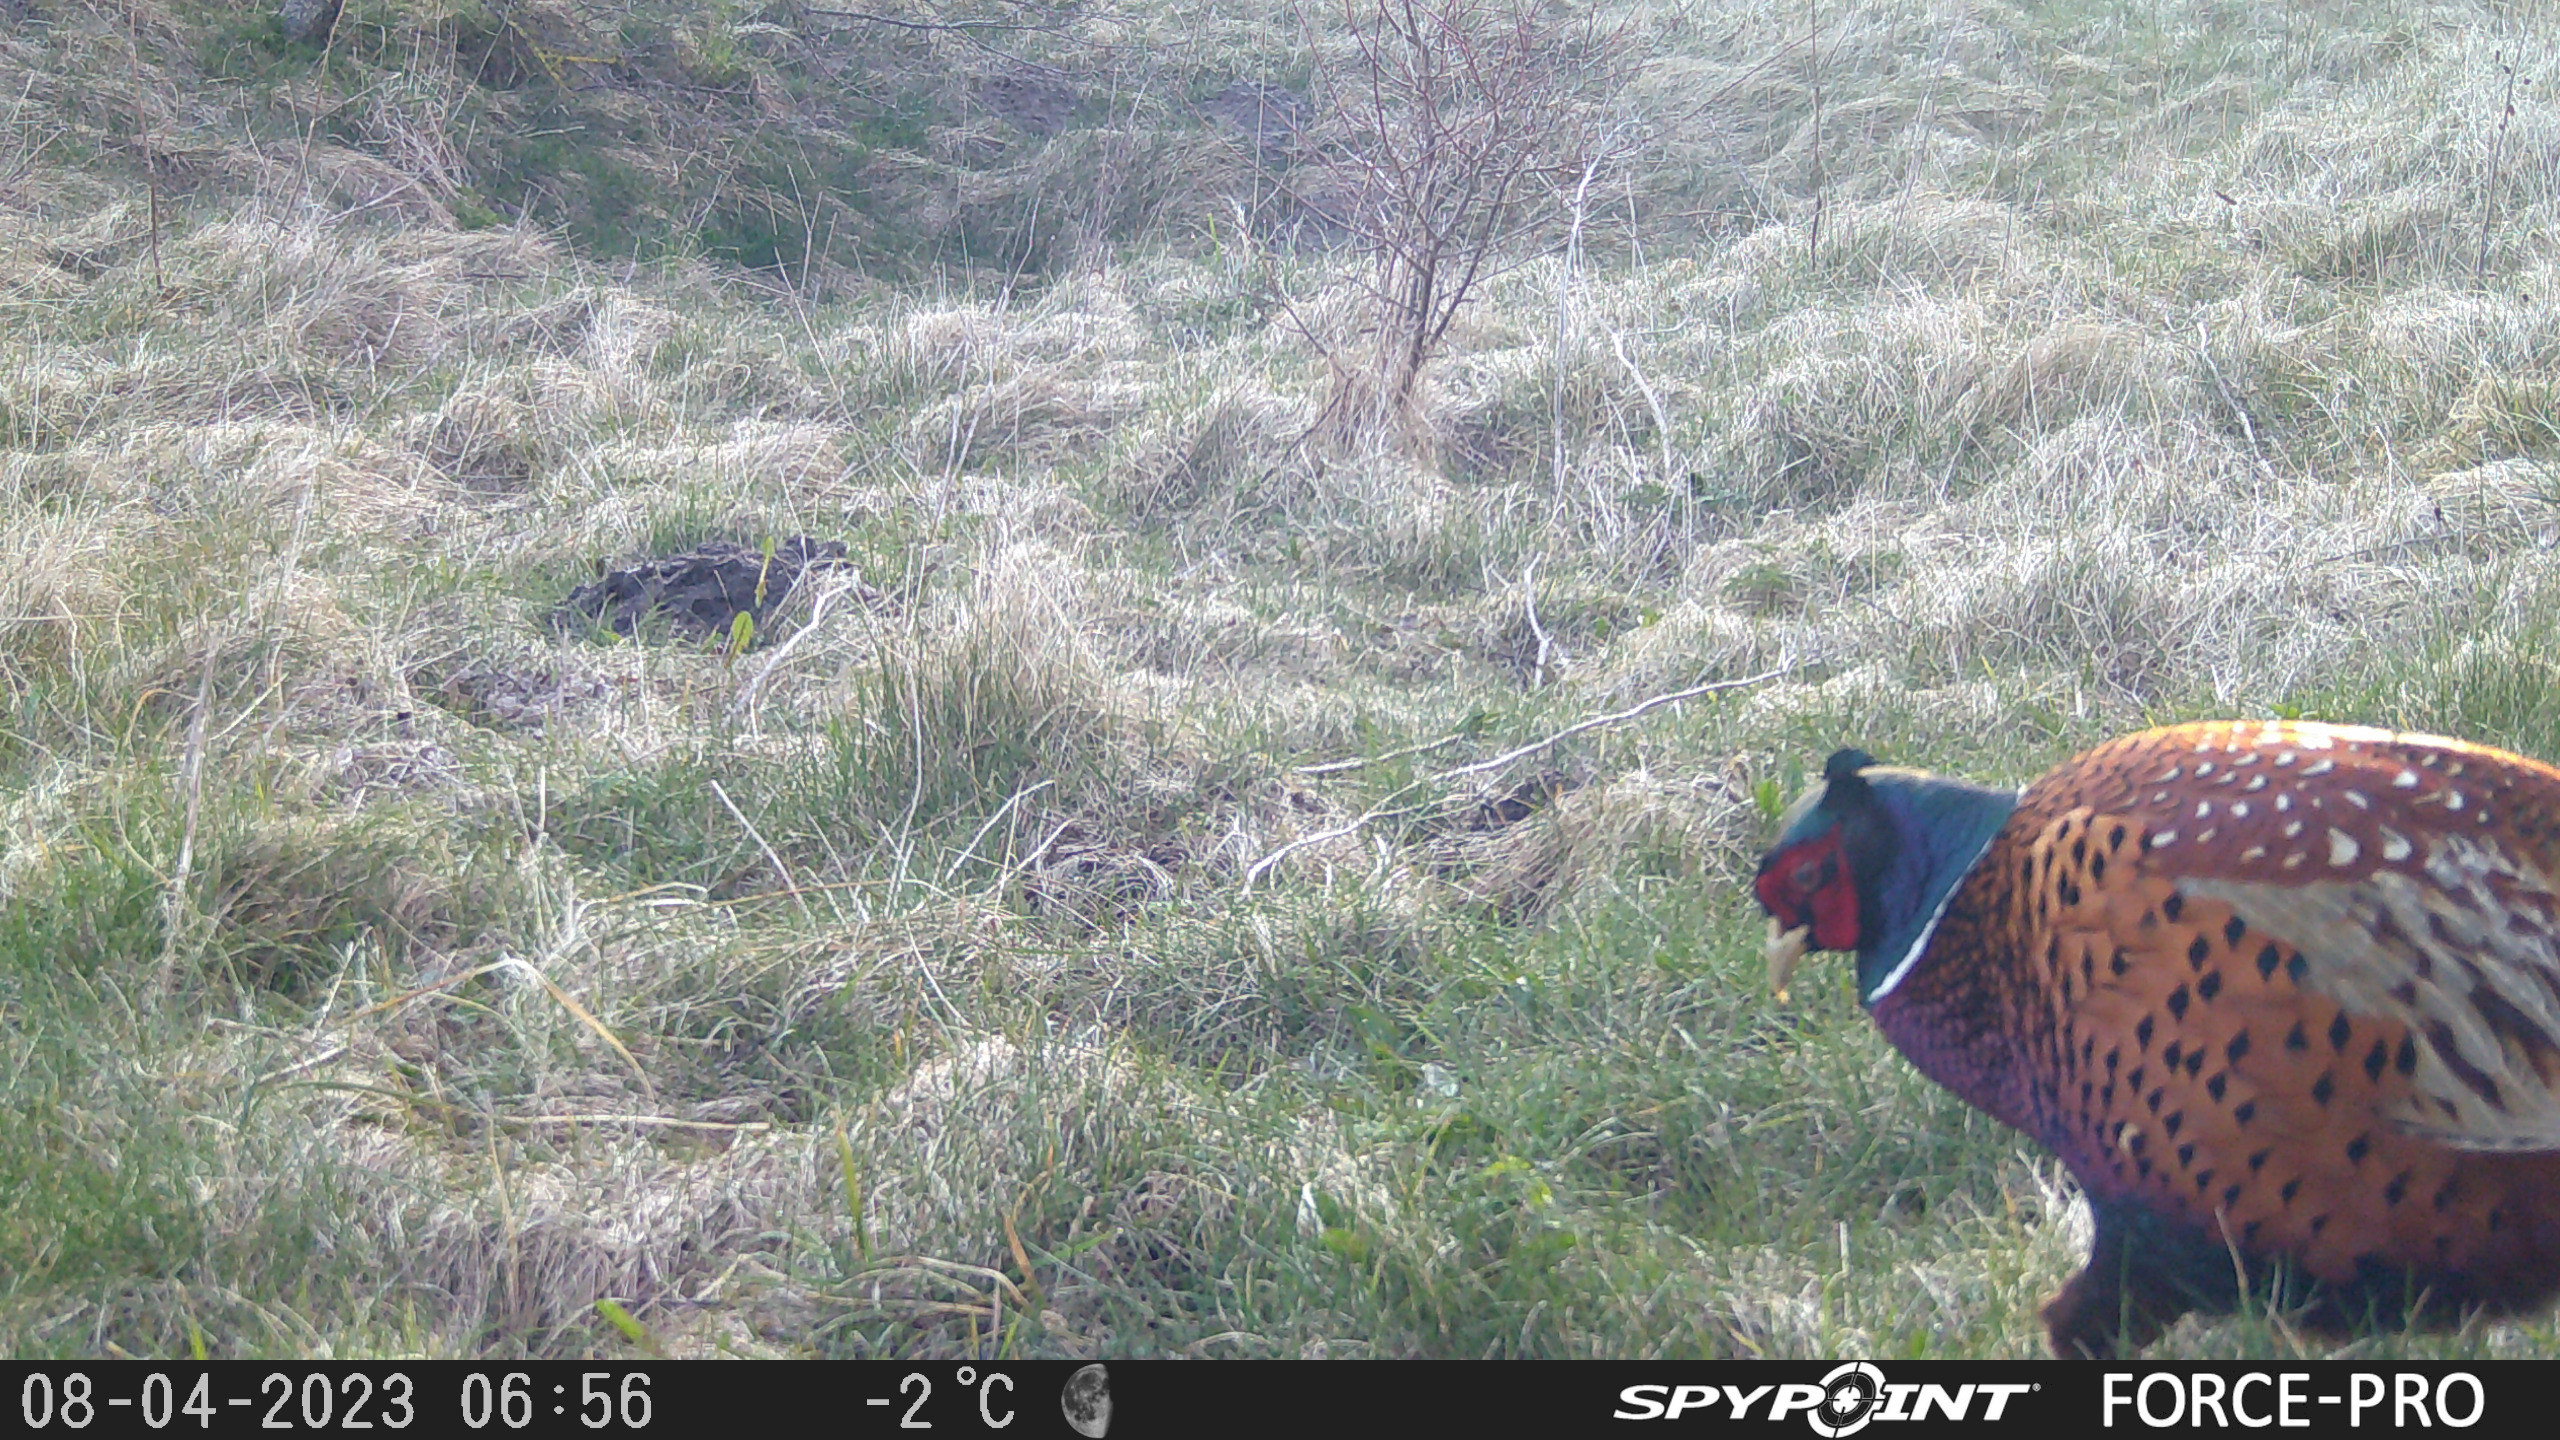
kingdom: Animalia
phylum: Chordata
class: Aves
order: Galliformes
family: Phasianidae
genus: Phasianus
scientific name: Phasianus colchicus
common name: Fasan
